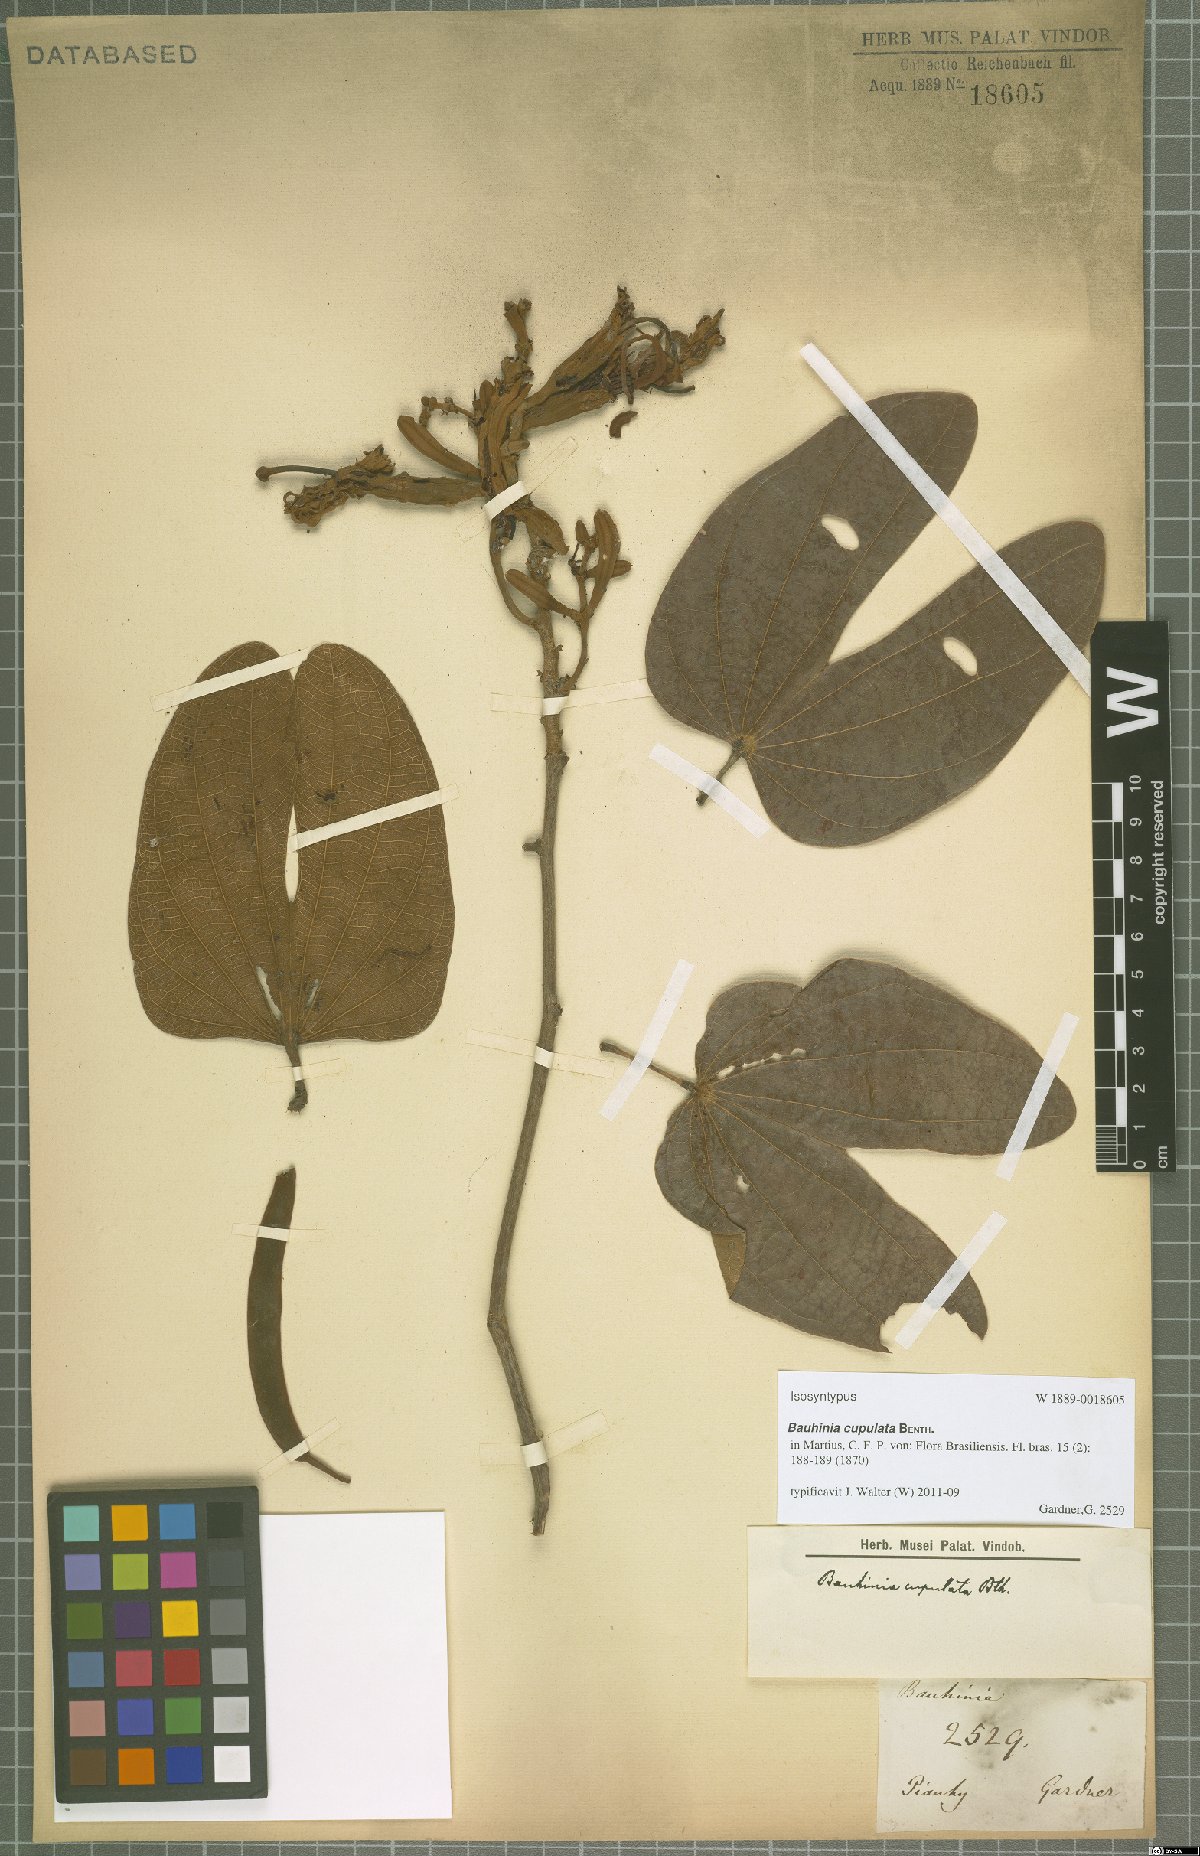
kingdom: Plantae
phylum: Tracheophyta
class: Magnoliopsida
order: Fabales
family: Fabaceae
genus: Bauhinia
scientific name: Bauhinia cupulata
